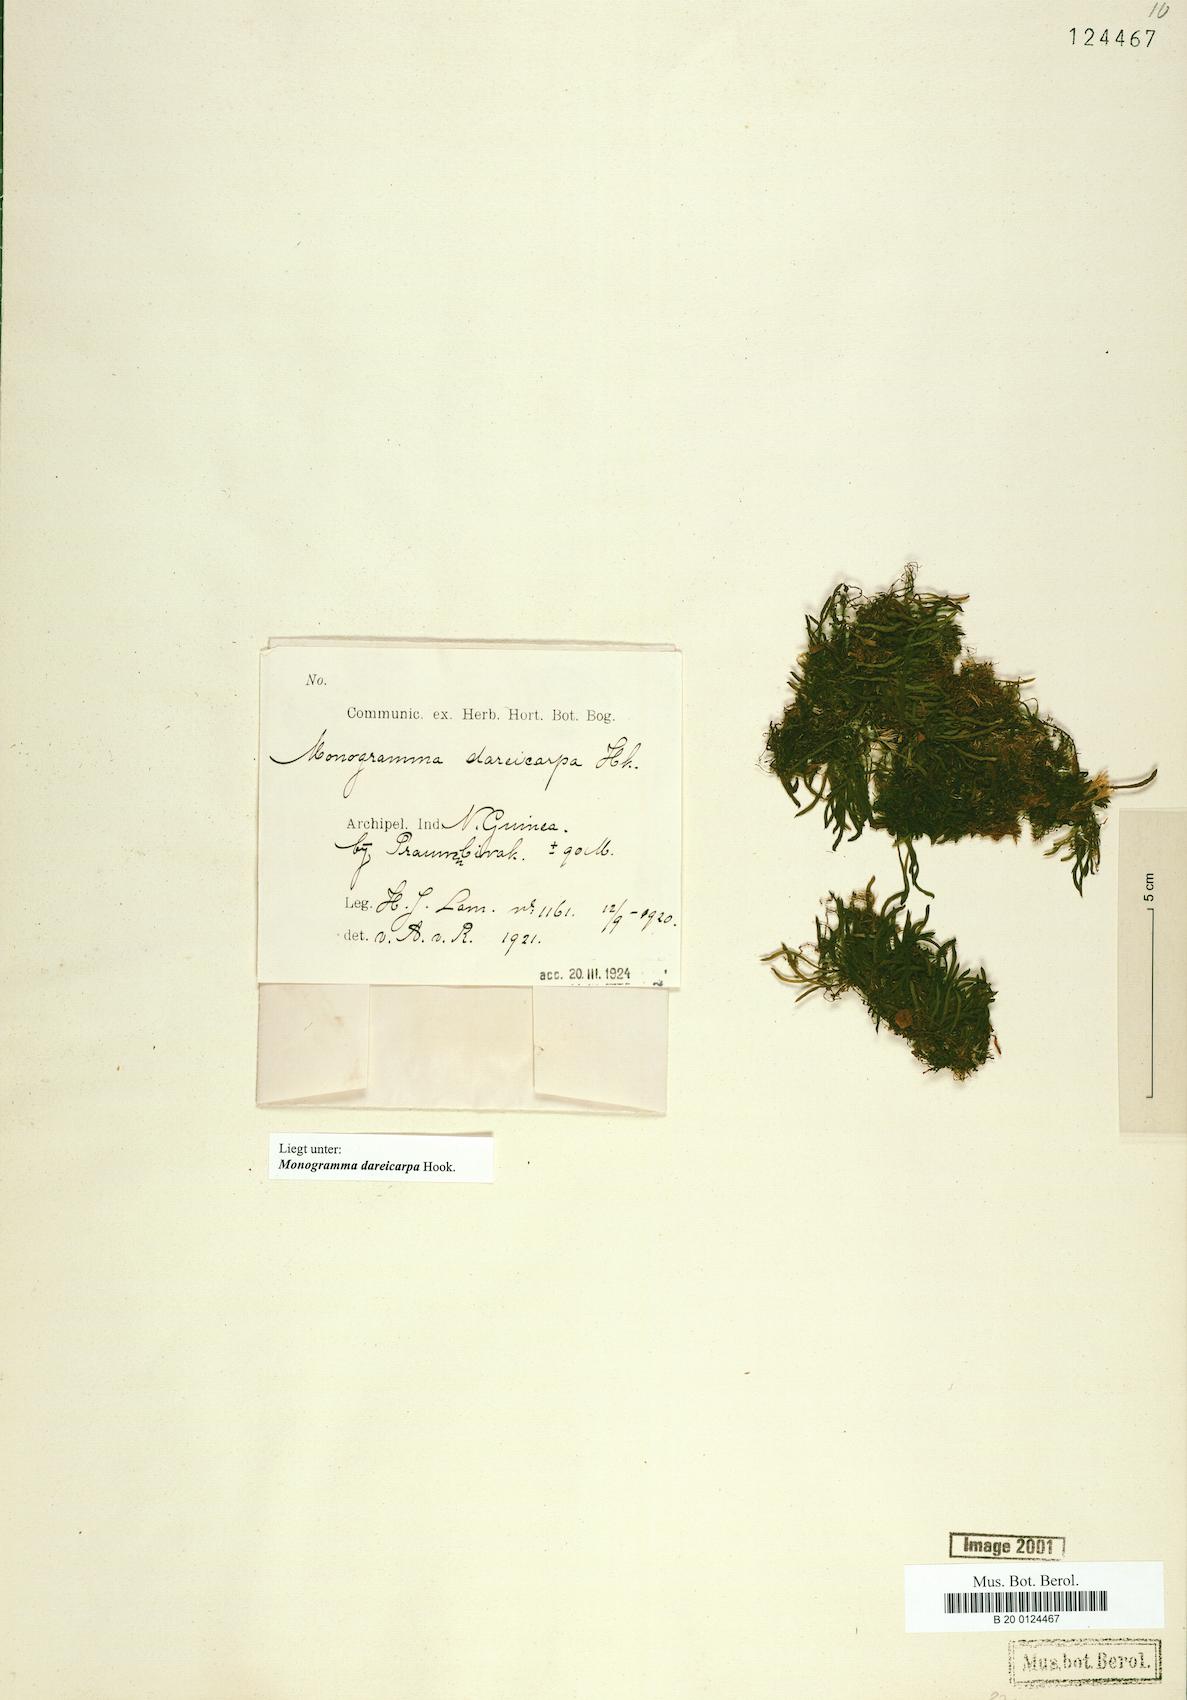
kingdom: Plantae
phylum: Tracheophyta
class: Polypodiopsida
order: Polypodiales
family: Pteridaceae
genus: Haplopteris
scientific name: Haplopteris dareicarpa
